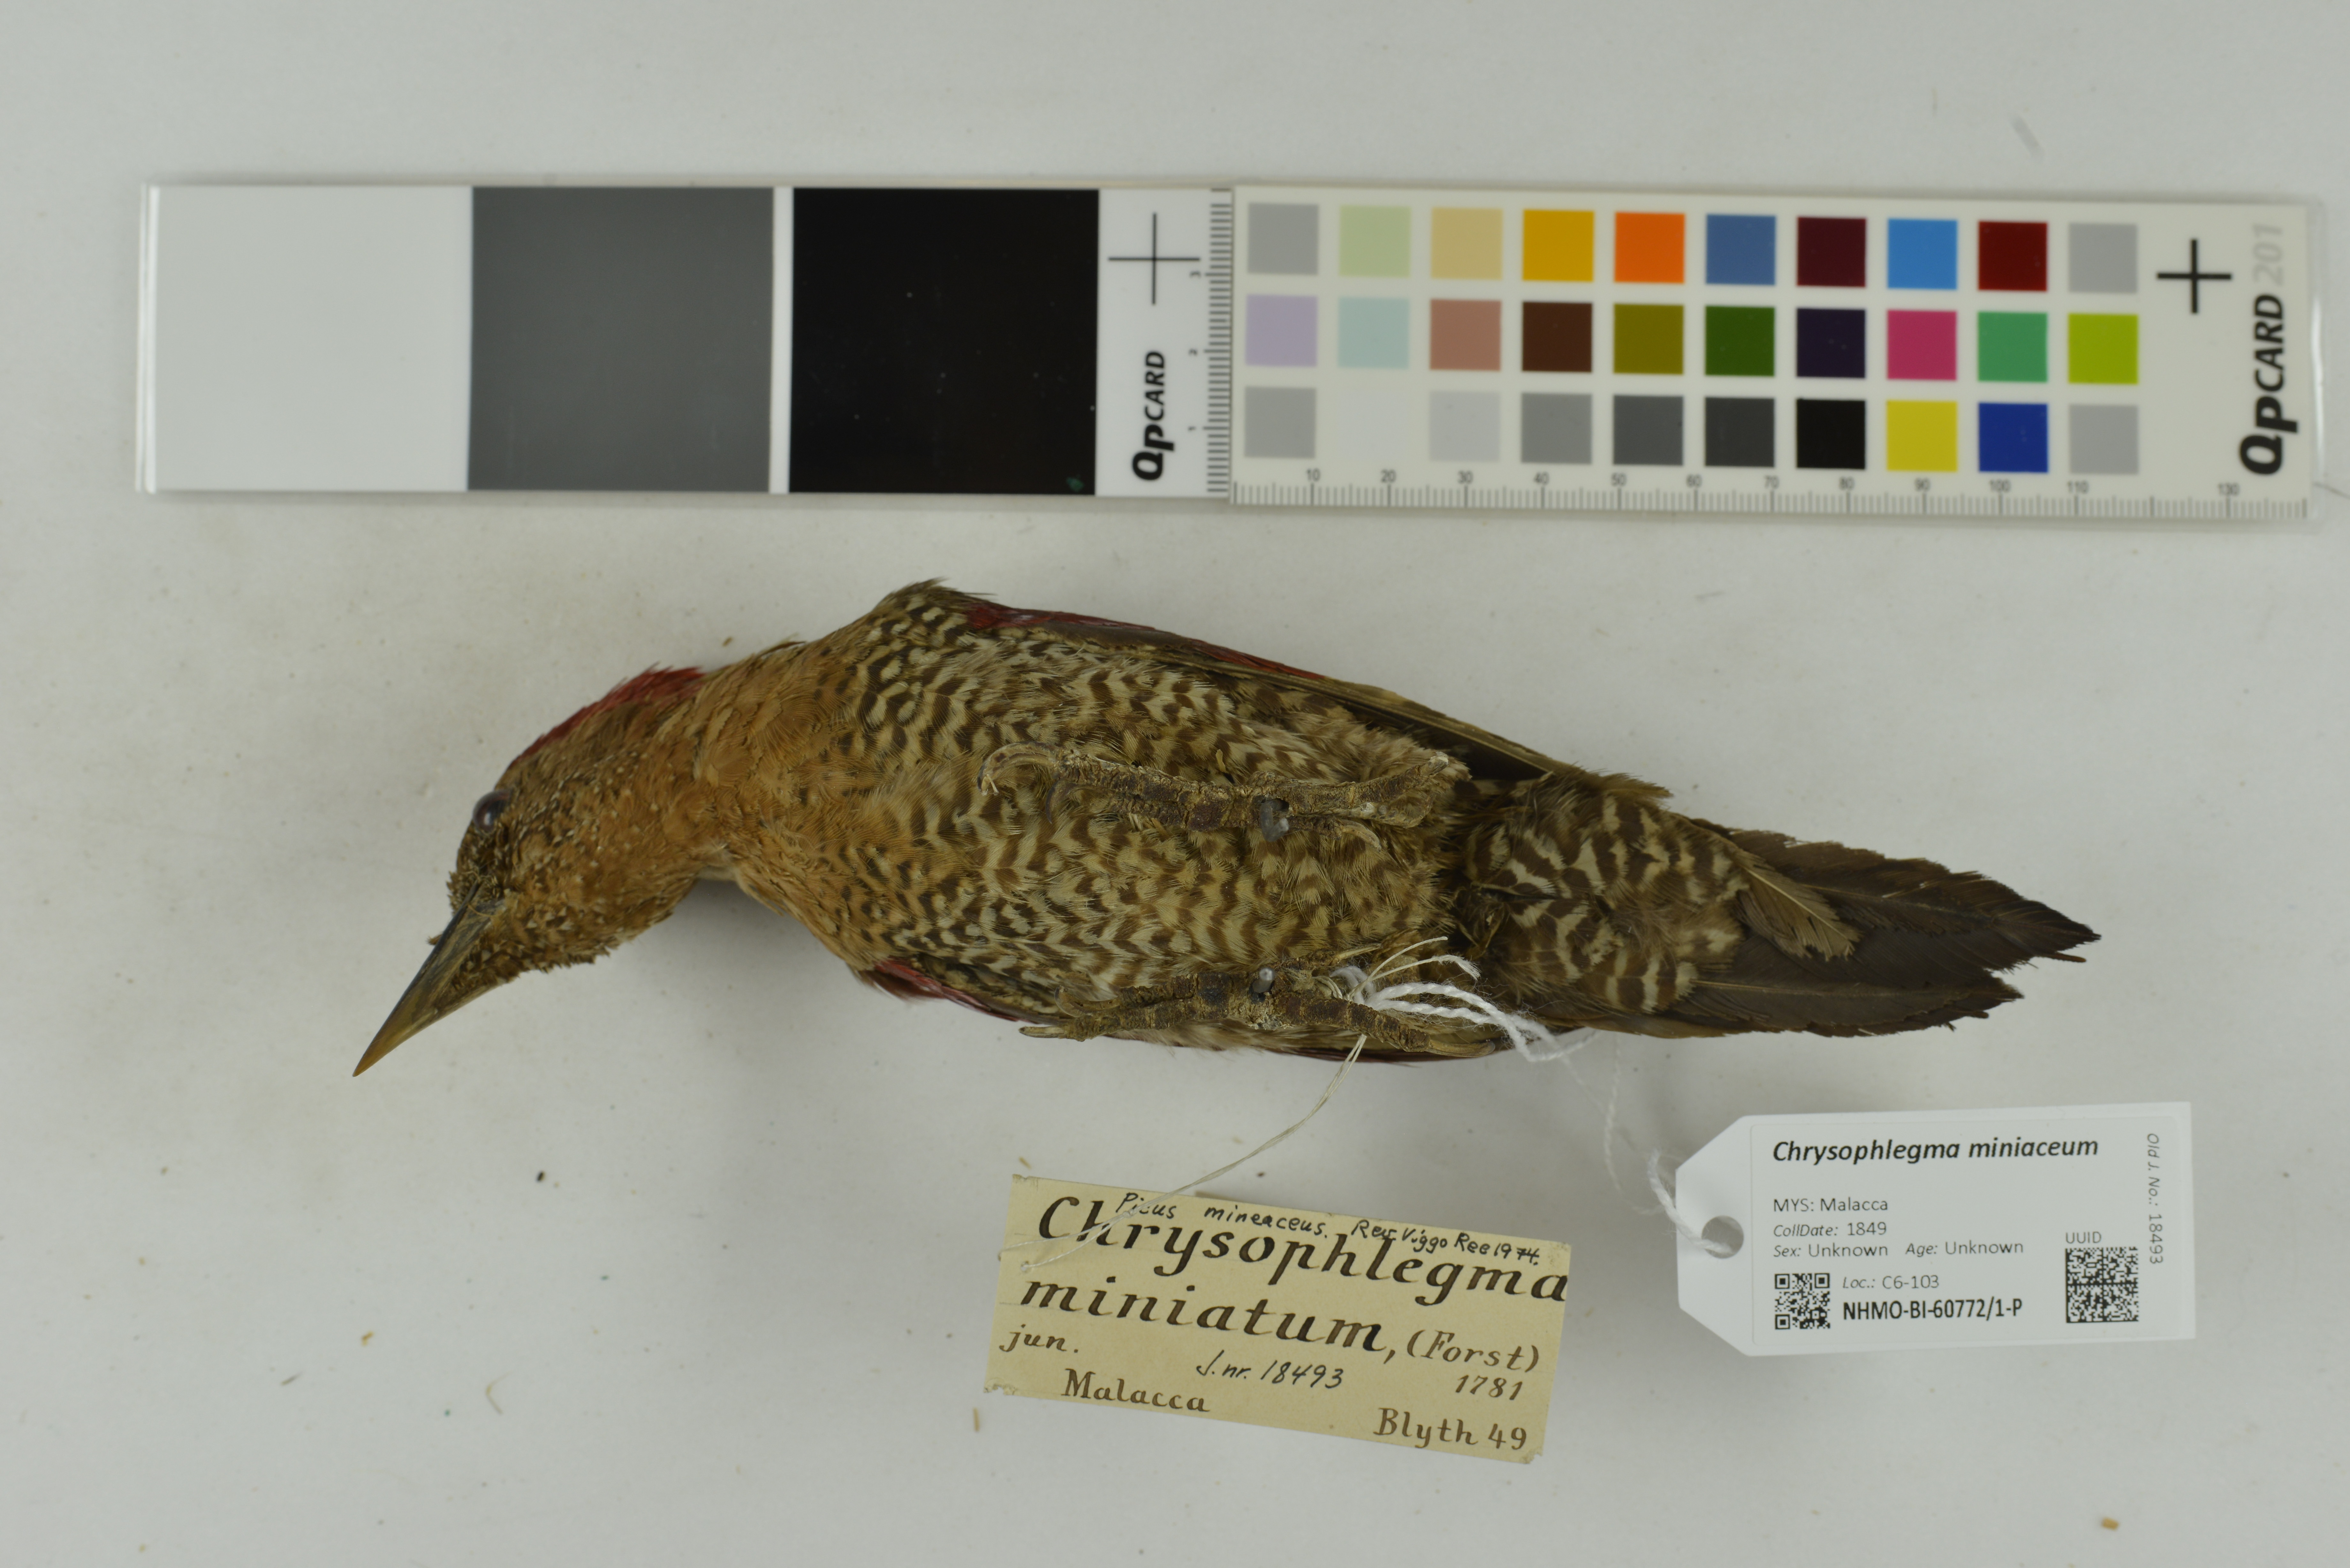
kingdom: Animalia
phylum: Chordata
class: Aves
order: Piciformes
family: Picidae
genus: Chrysophlegma
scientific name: Chrysophlegma miniaceum
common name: Banded woodpecker
